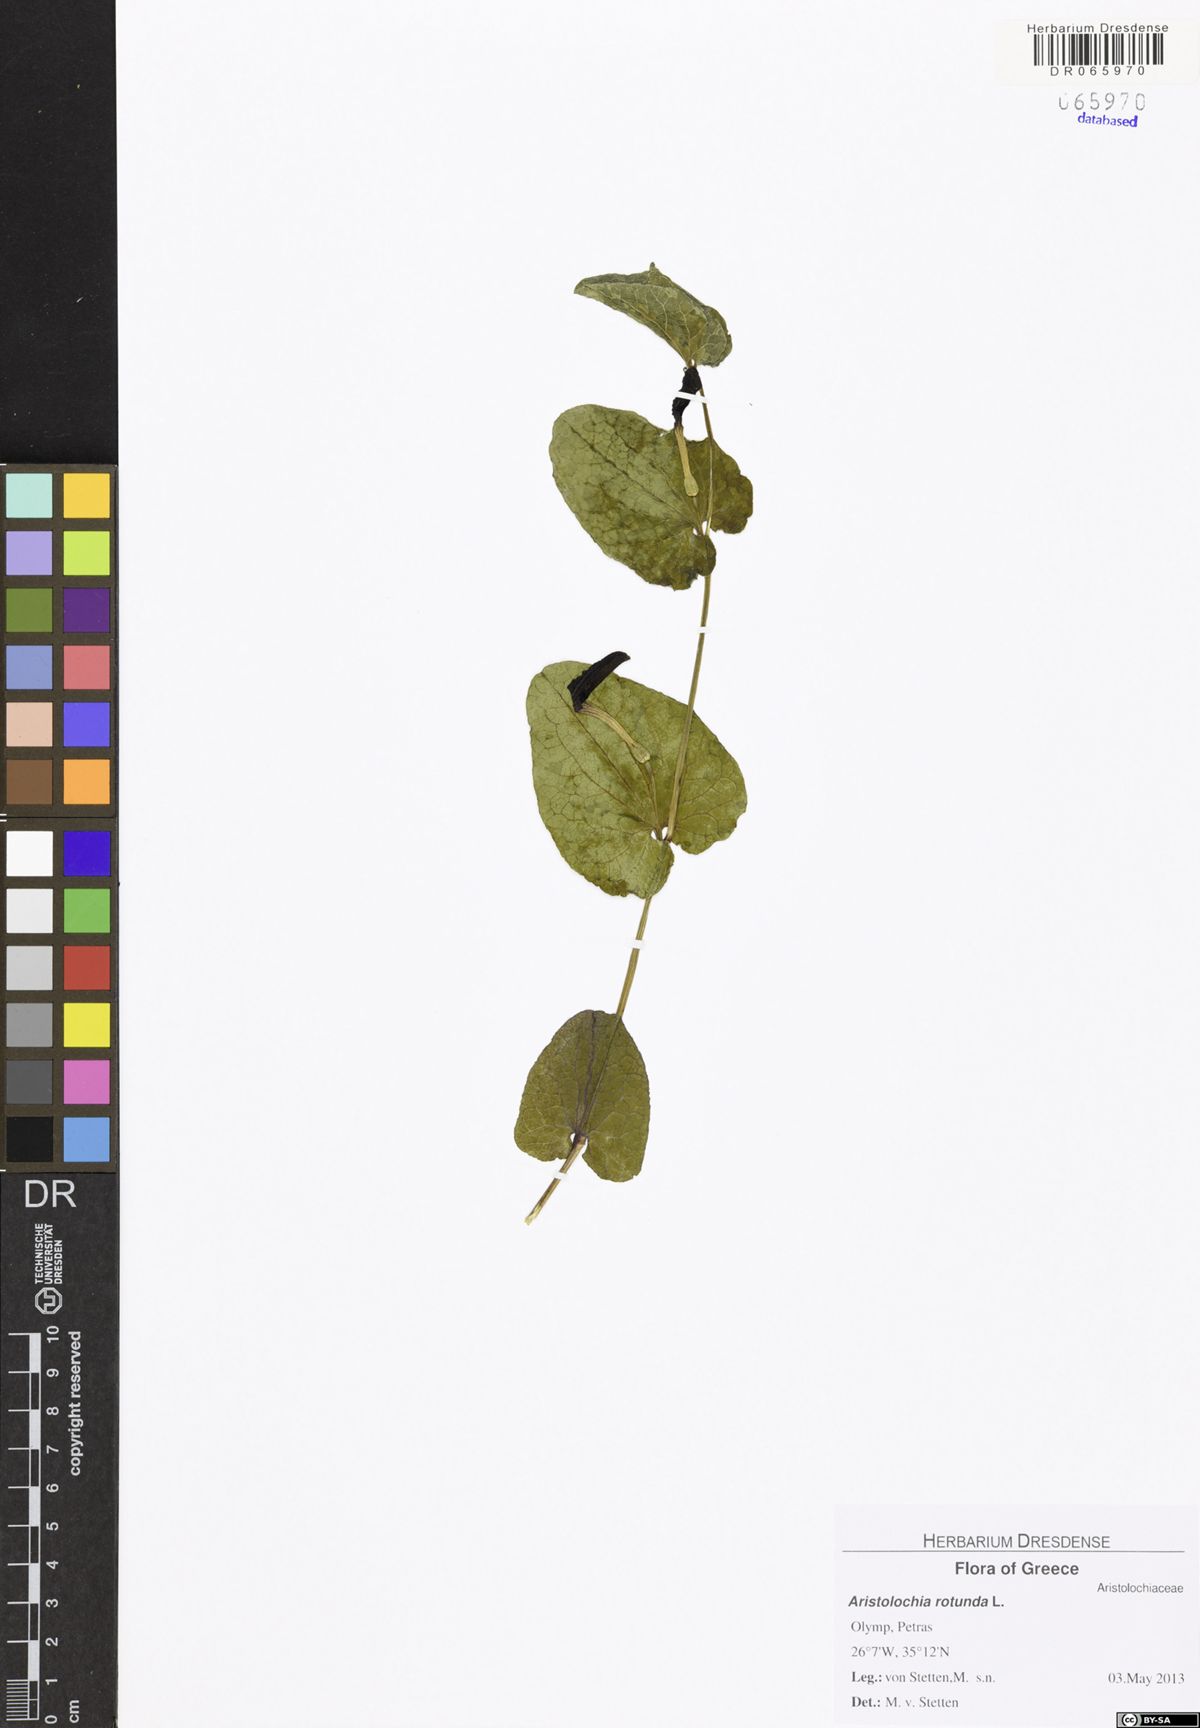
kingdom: Plantae
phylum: Tracheophyta
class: Magnoliopsida
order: Piperales
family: Aristolochiaceae
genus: Aristolochia
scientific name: Aristolochia rotunda
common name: Smearwort
